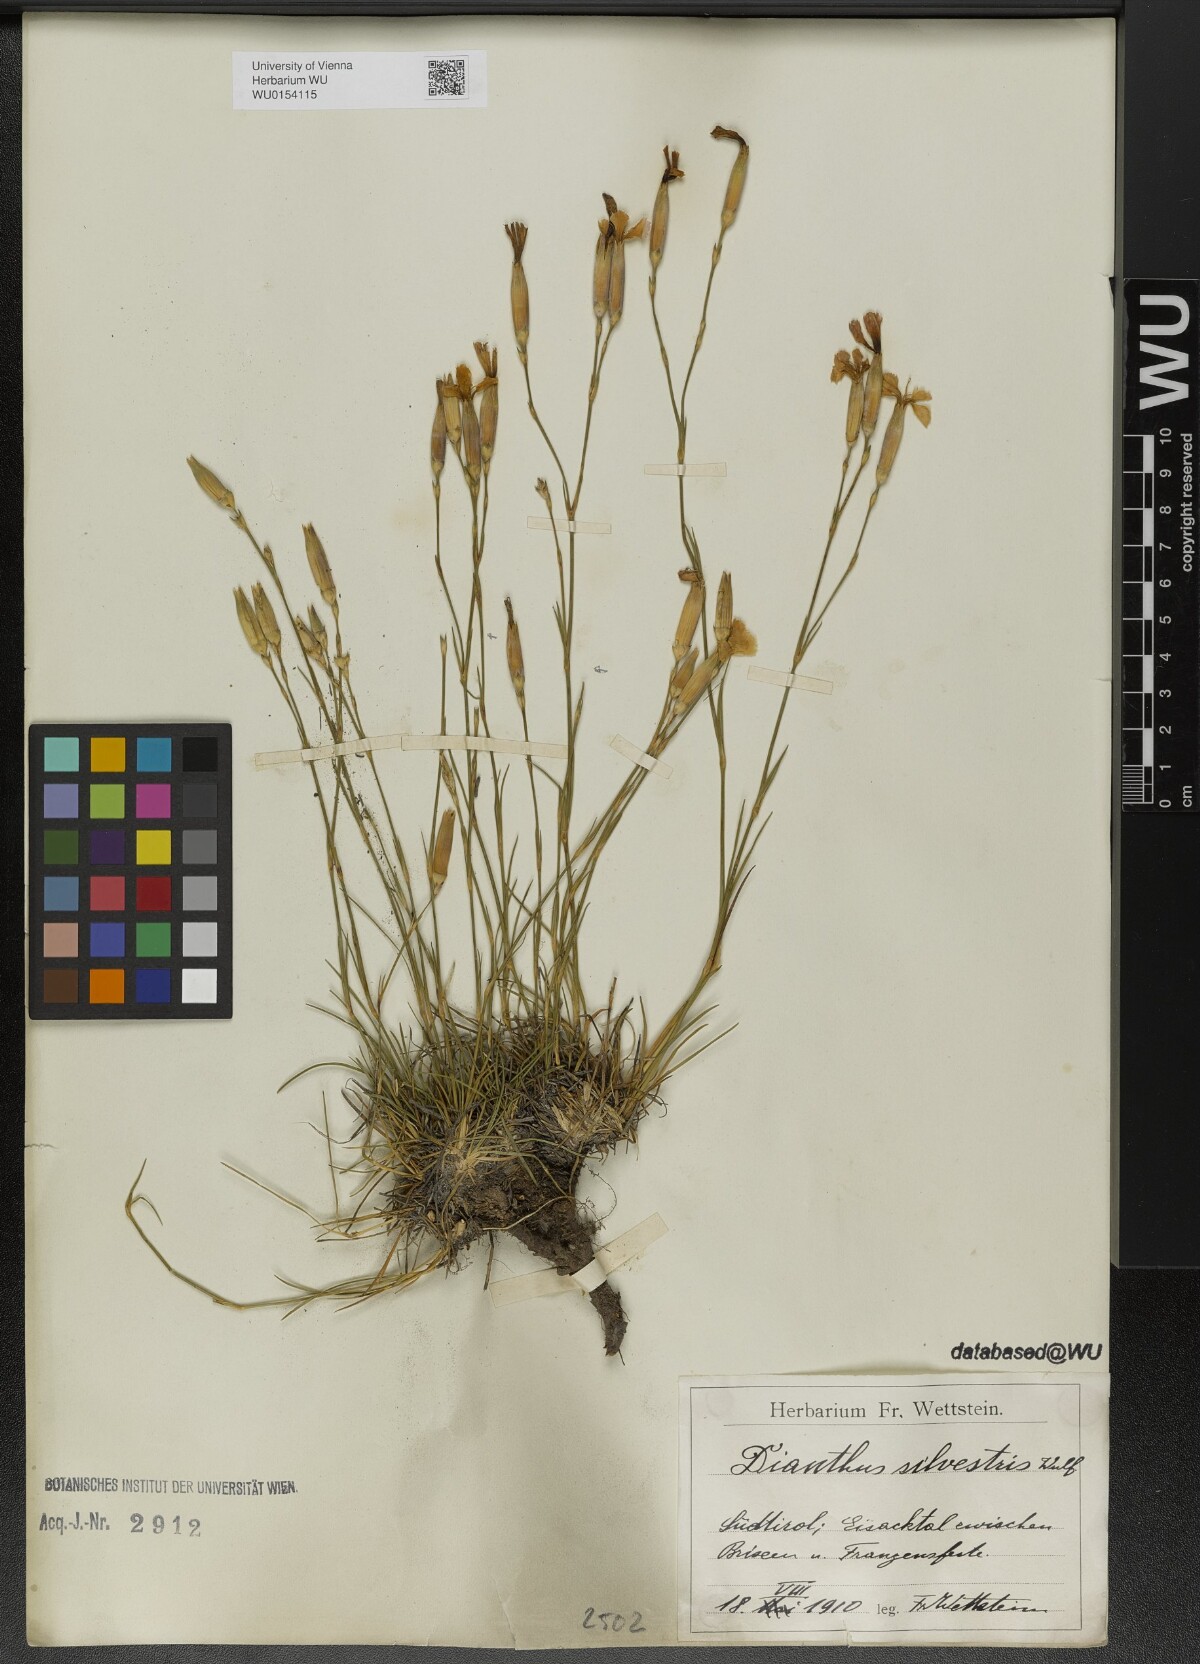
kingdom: Plantae
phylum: Tracheophyta
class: Magnoliopsida
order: Caryophyllales
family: Caryophyllaceae
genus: Dianthus
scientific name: Dianthus sylvestris
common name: Wood pink
